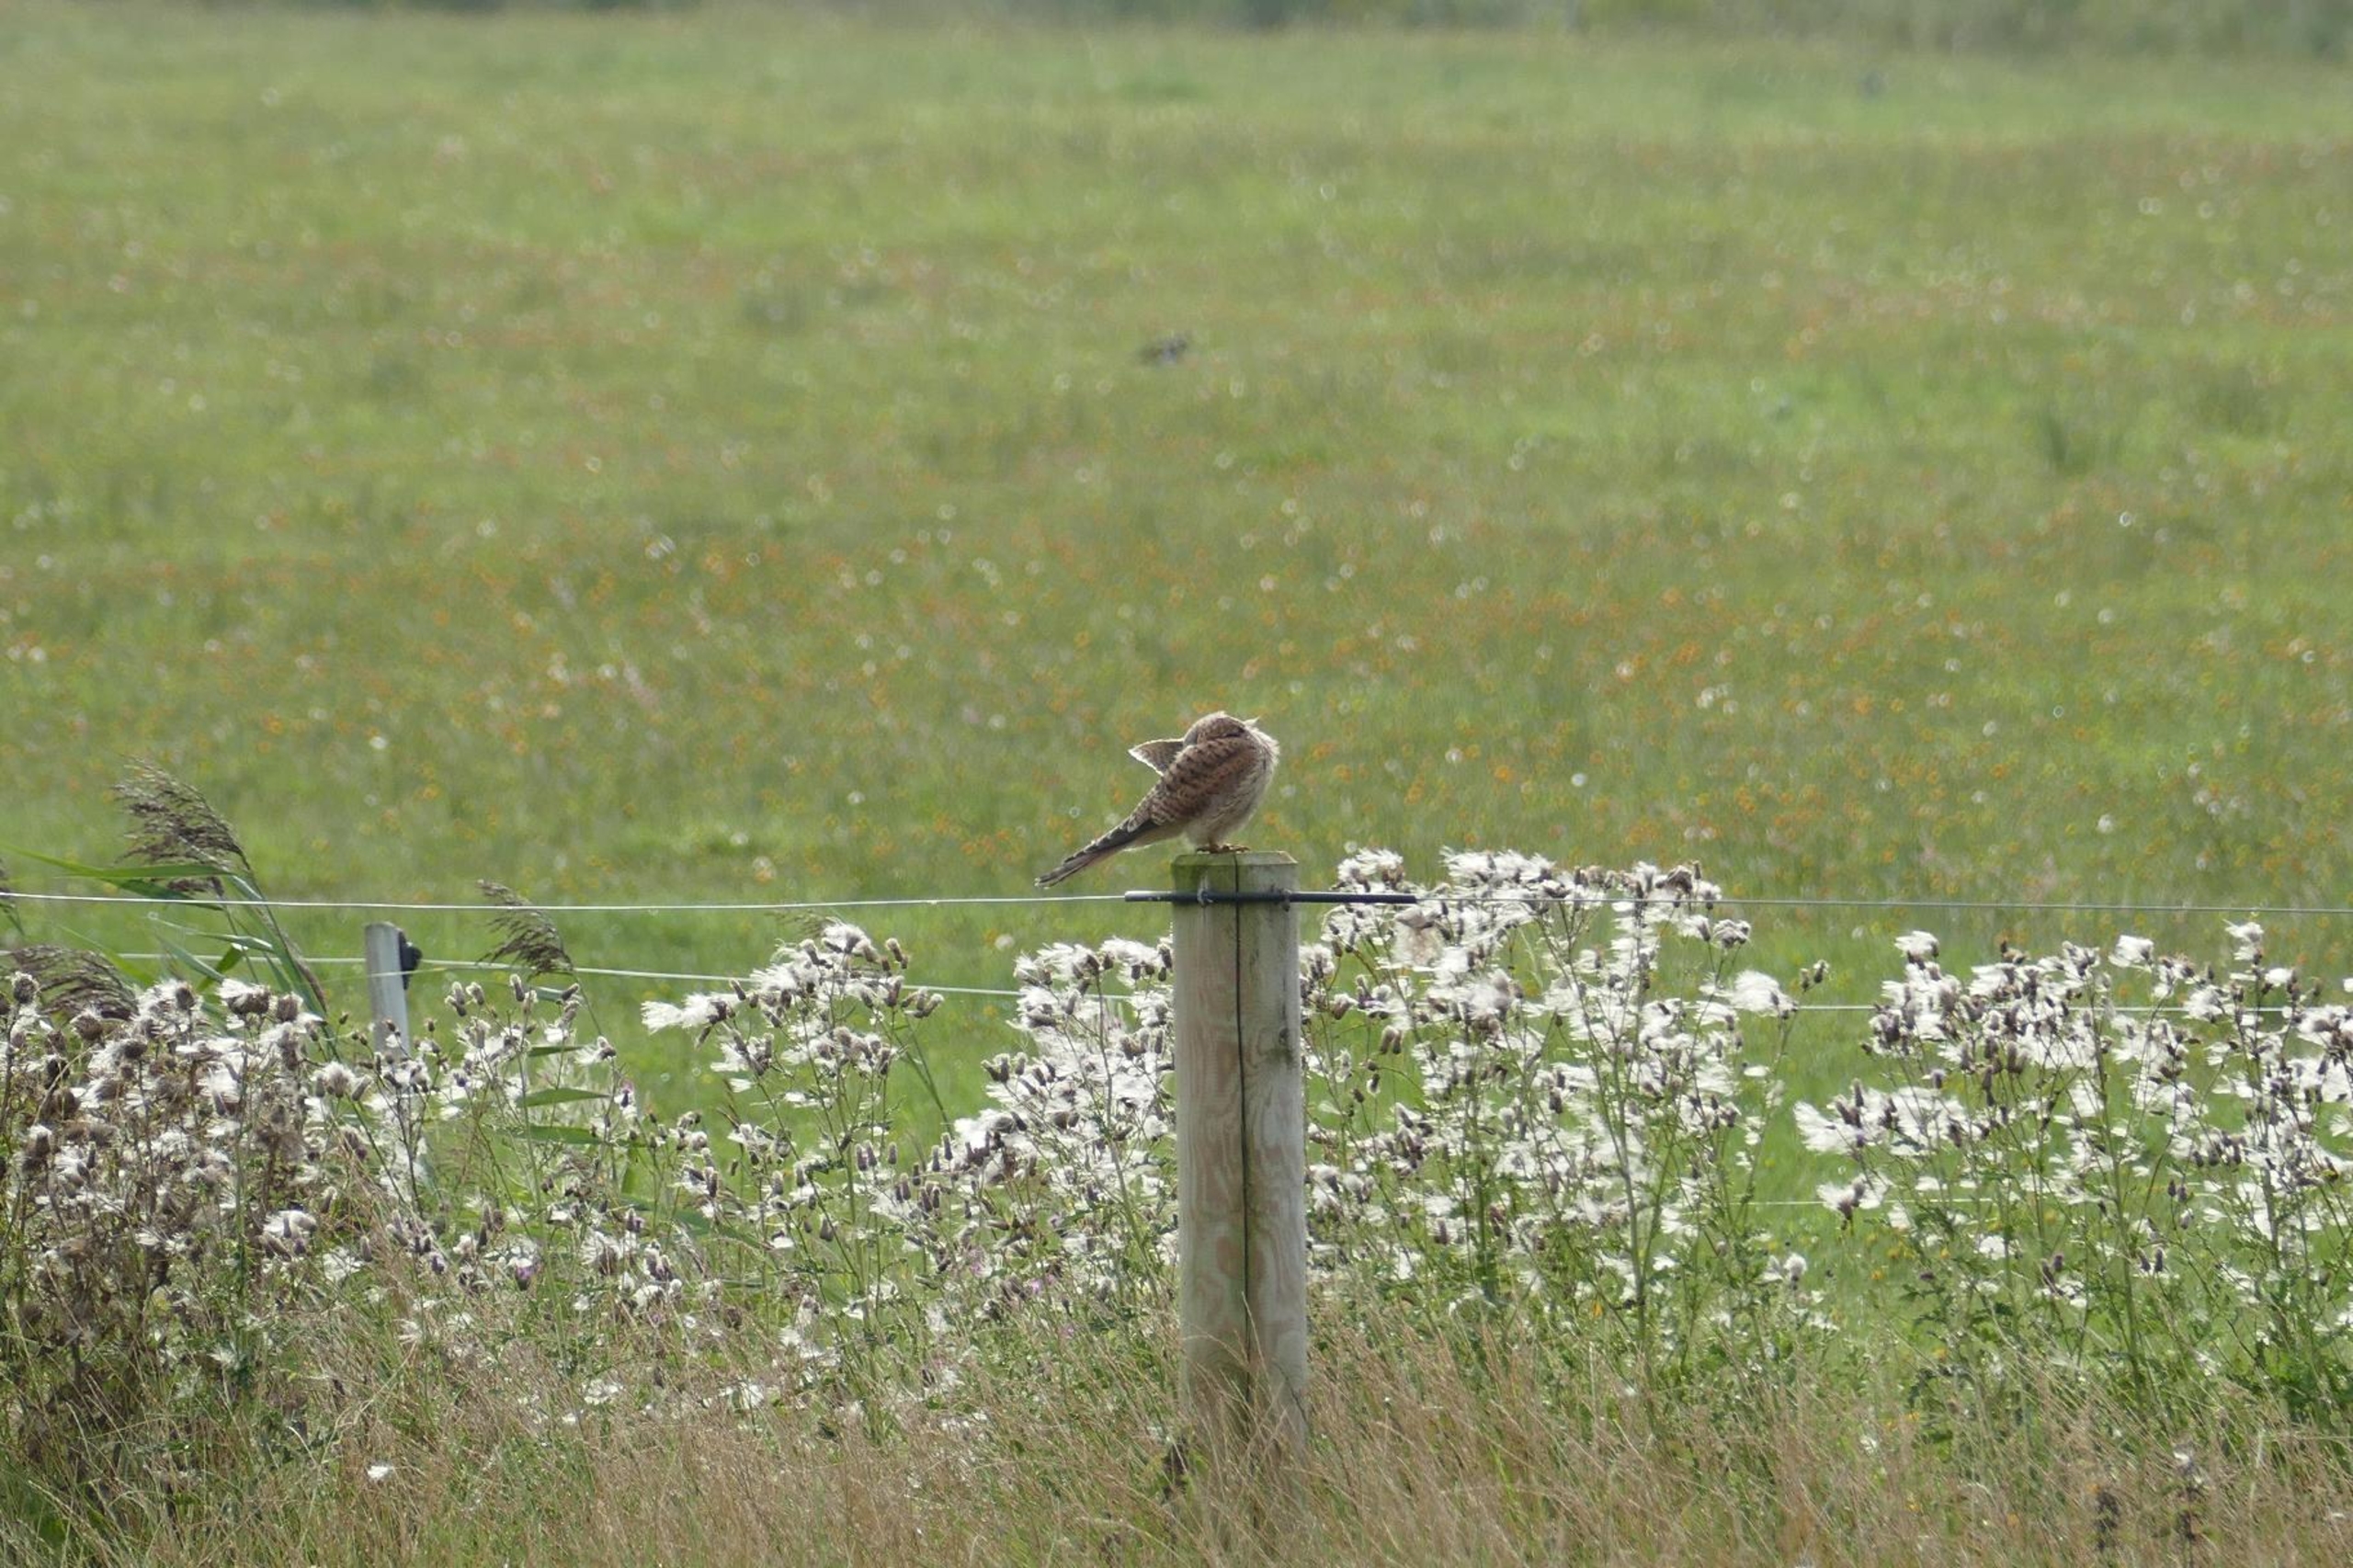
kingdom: Animalia
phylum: Chordata
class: Aves
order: Falconiformes
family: Falconidae
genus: Falco
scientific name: Falco tinnunculus
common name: Tårnfalk
